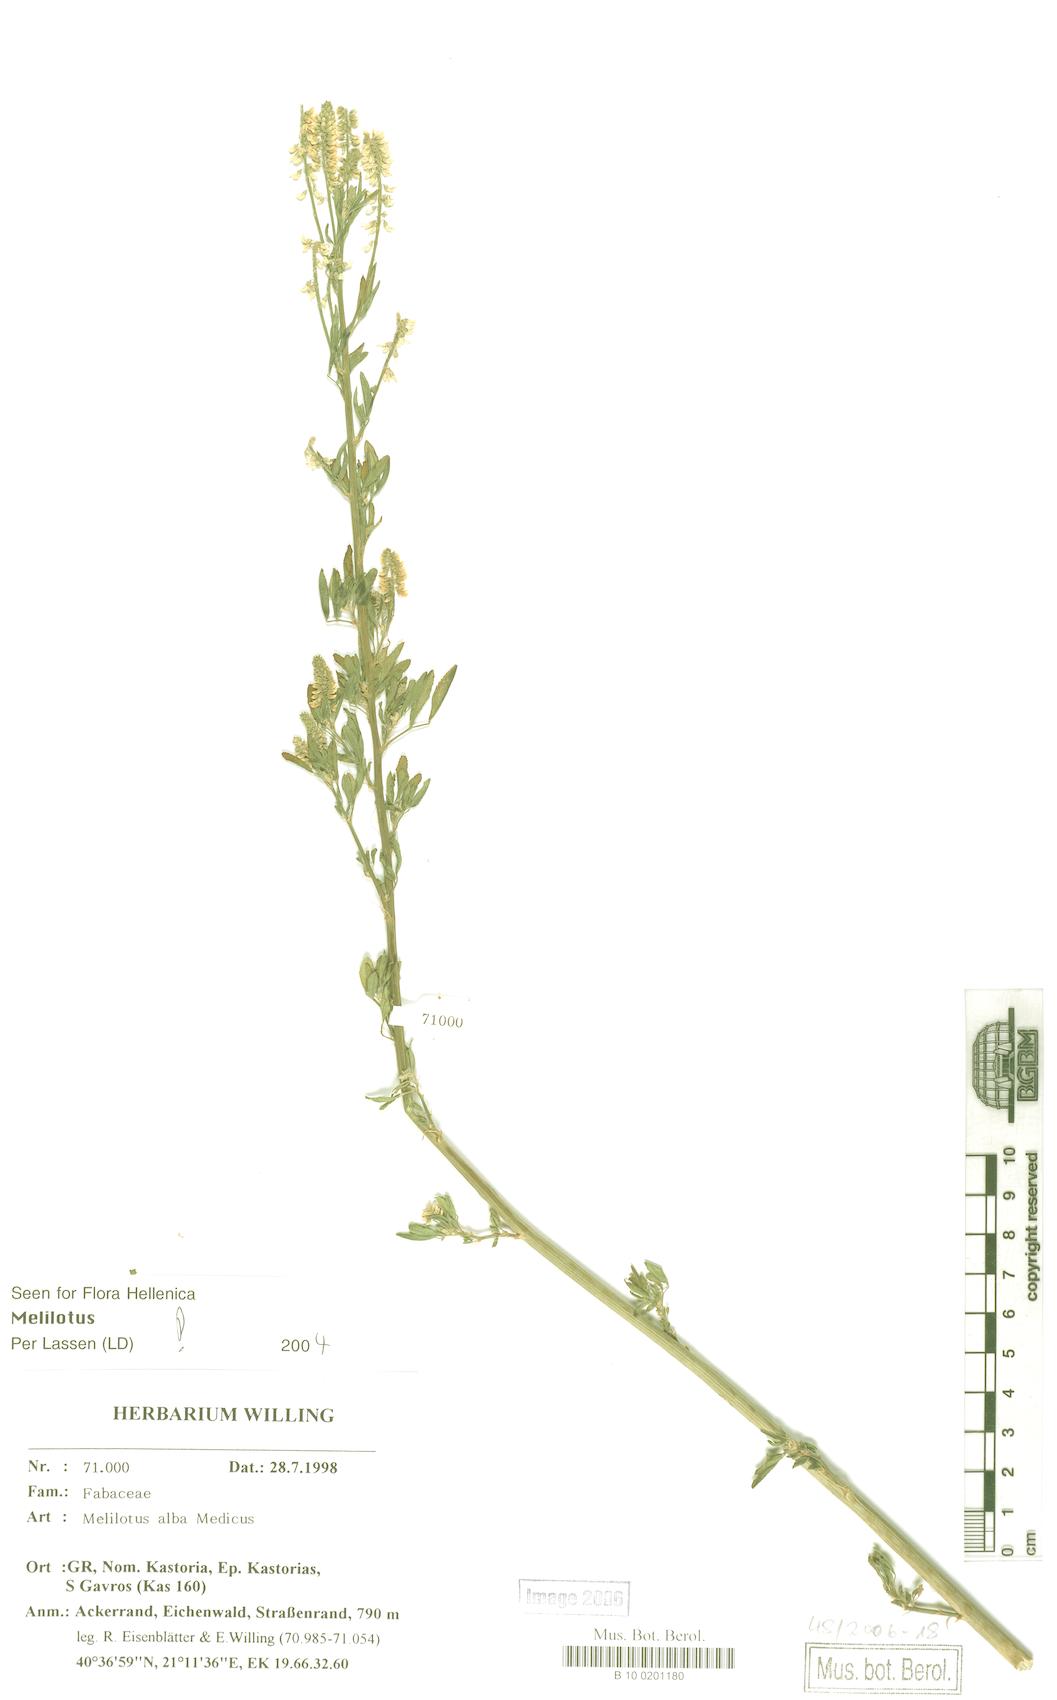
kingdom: Plantae
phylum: Tracheophyta
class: Magnoliopsida
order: Fabales
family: Fabaceae
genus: Melilotus
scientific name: Melilotus albus
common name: White melilot
